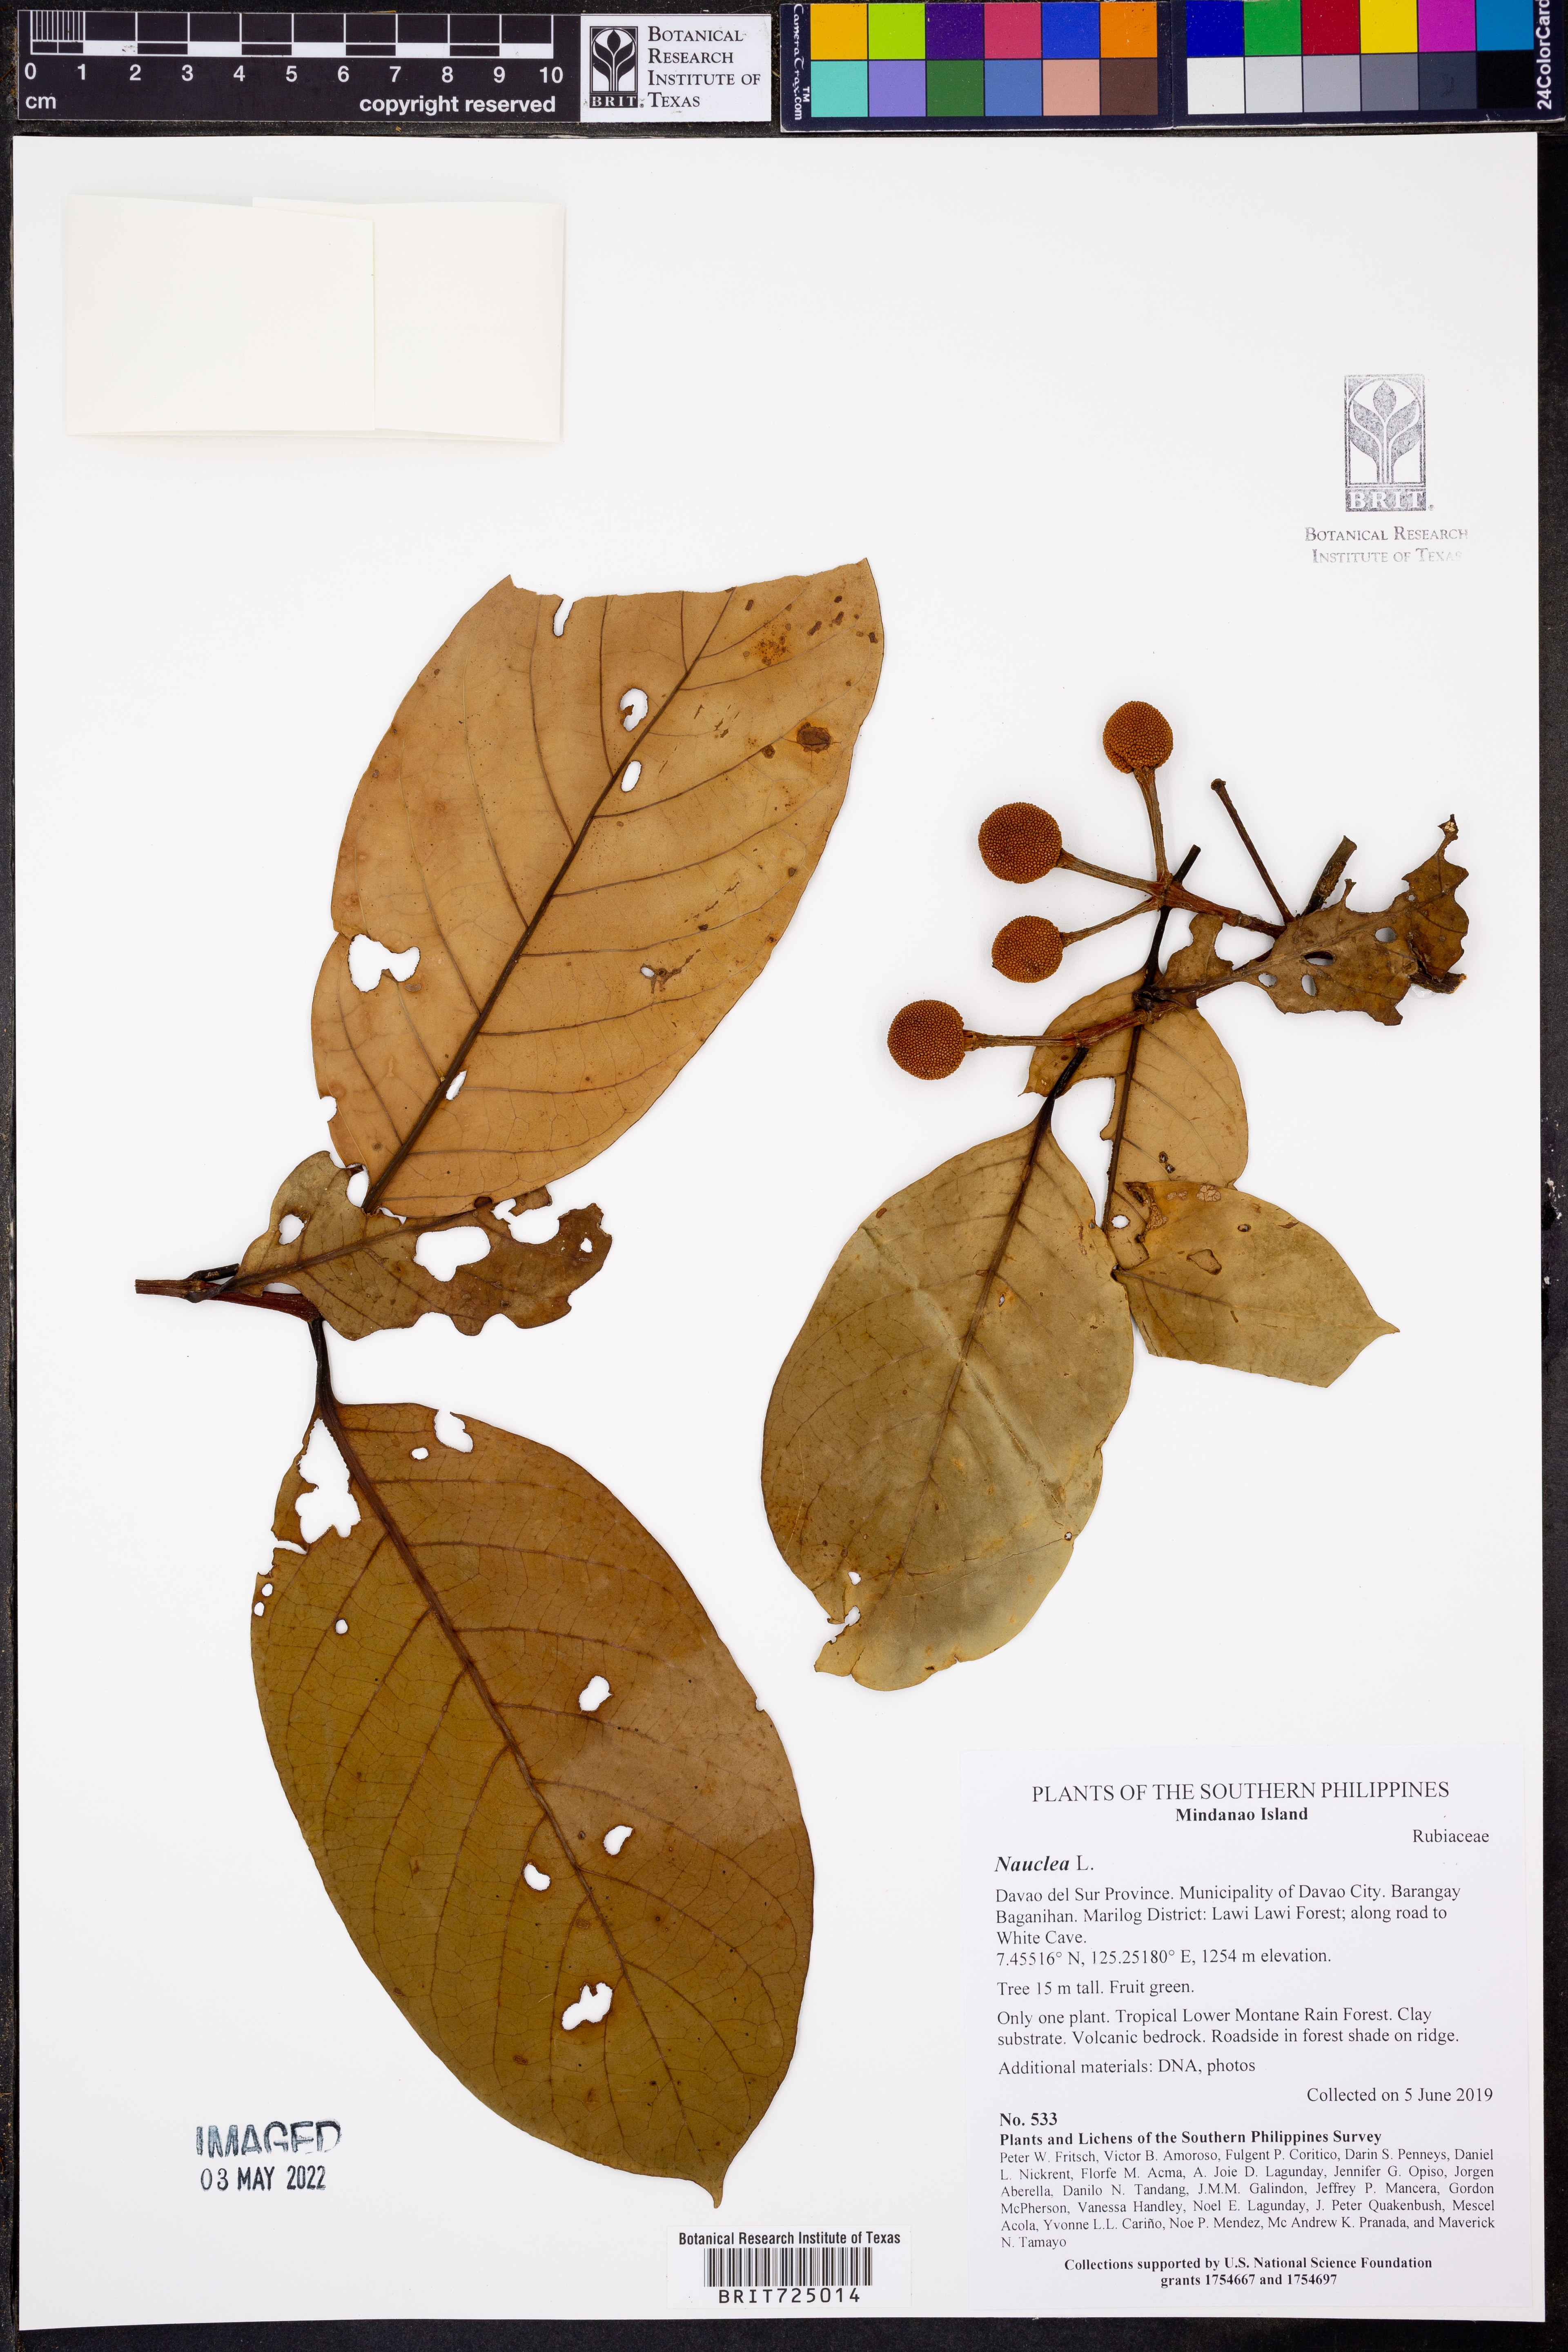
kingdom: Plantae
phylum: Tracheophyta
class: Magnoliopsida
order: Gentianales
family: Rubiaceae
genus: Nauclea
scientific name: Nauclea
